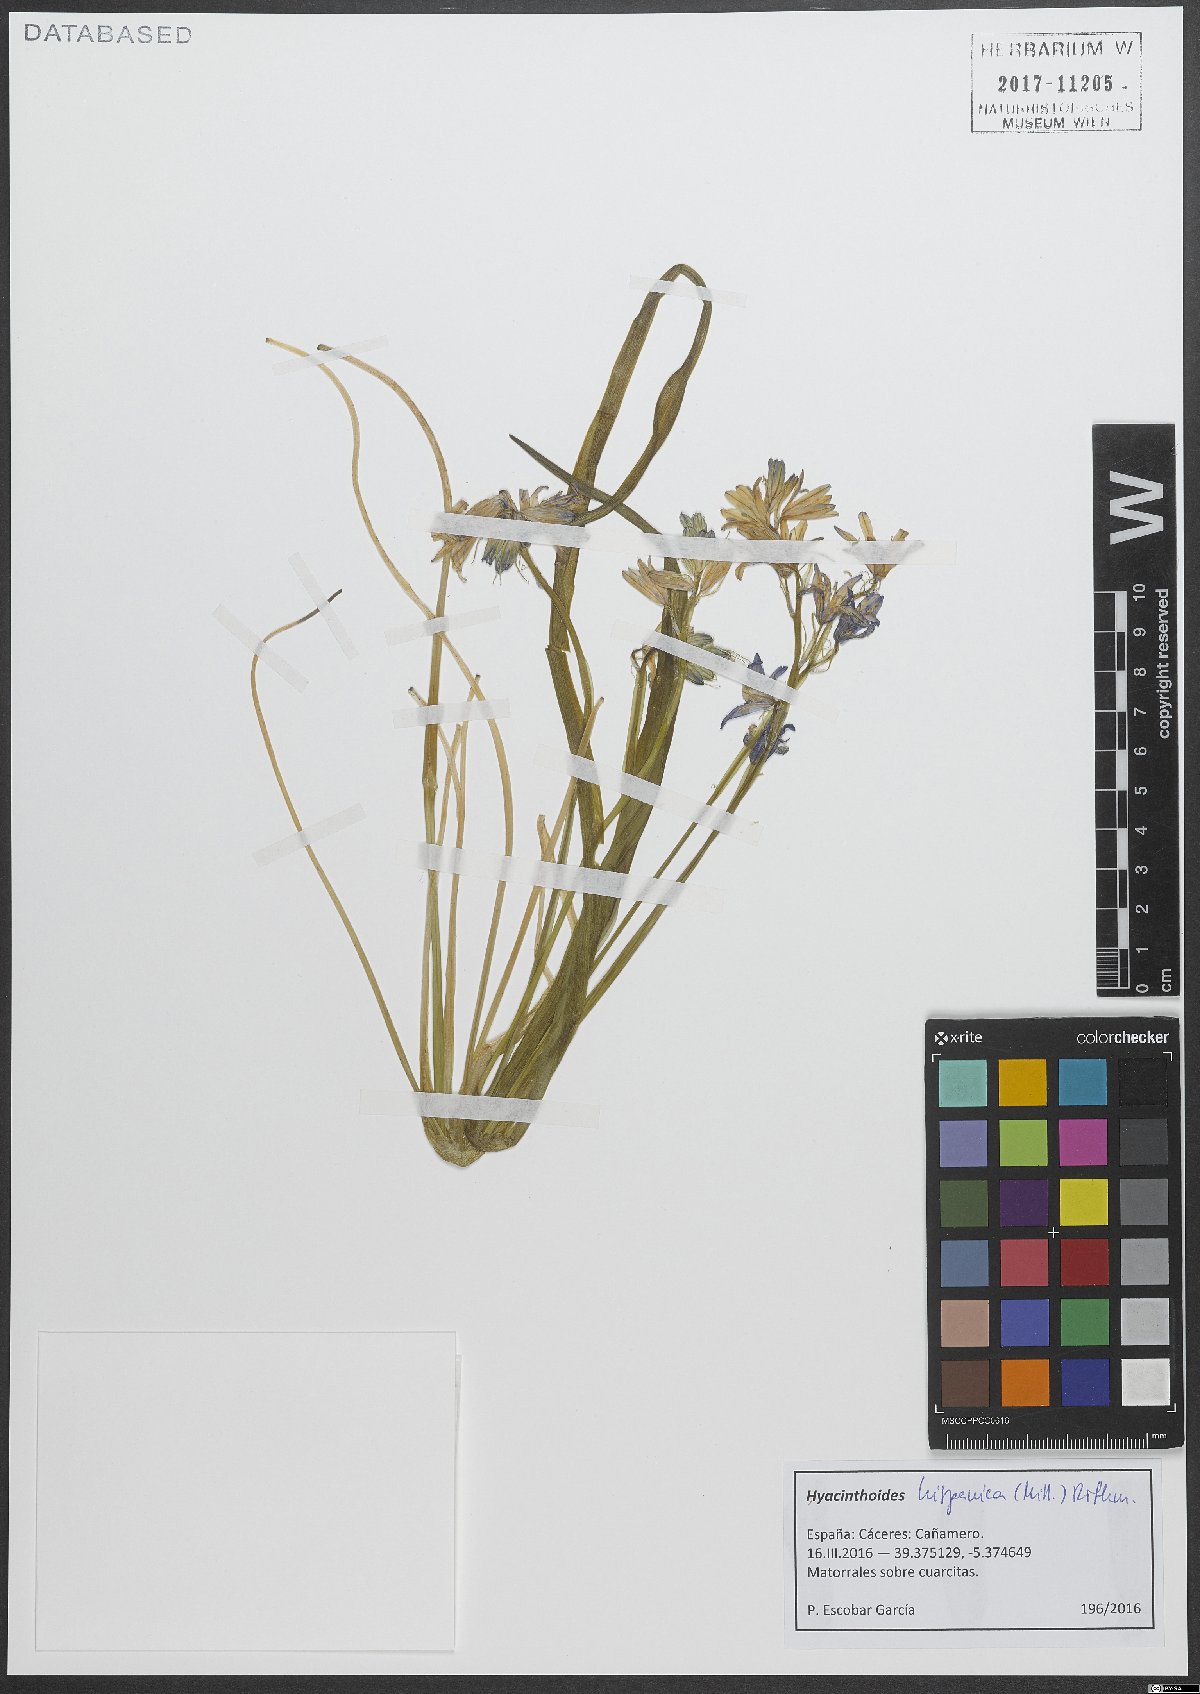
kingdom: Plantae
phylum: Tracheophyta
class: Liliopsida
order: Asparagales
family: Asparagaceae
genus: Hyacinthoides
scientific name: Hyacinthoides hispanica
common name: Spanish bluebell
